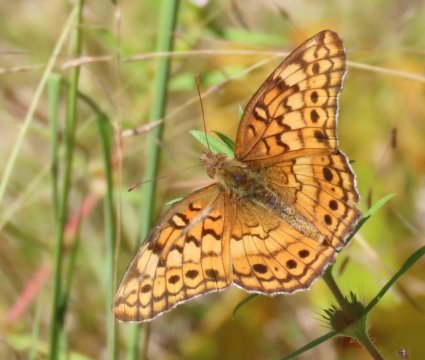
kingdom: Animalia
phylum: Arthropoda
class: Insecta
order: Lepidoptera
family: Nymphalidae
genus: Euptoieta
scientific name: Euptoieta claudia
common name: Variegated Fritillary
